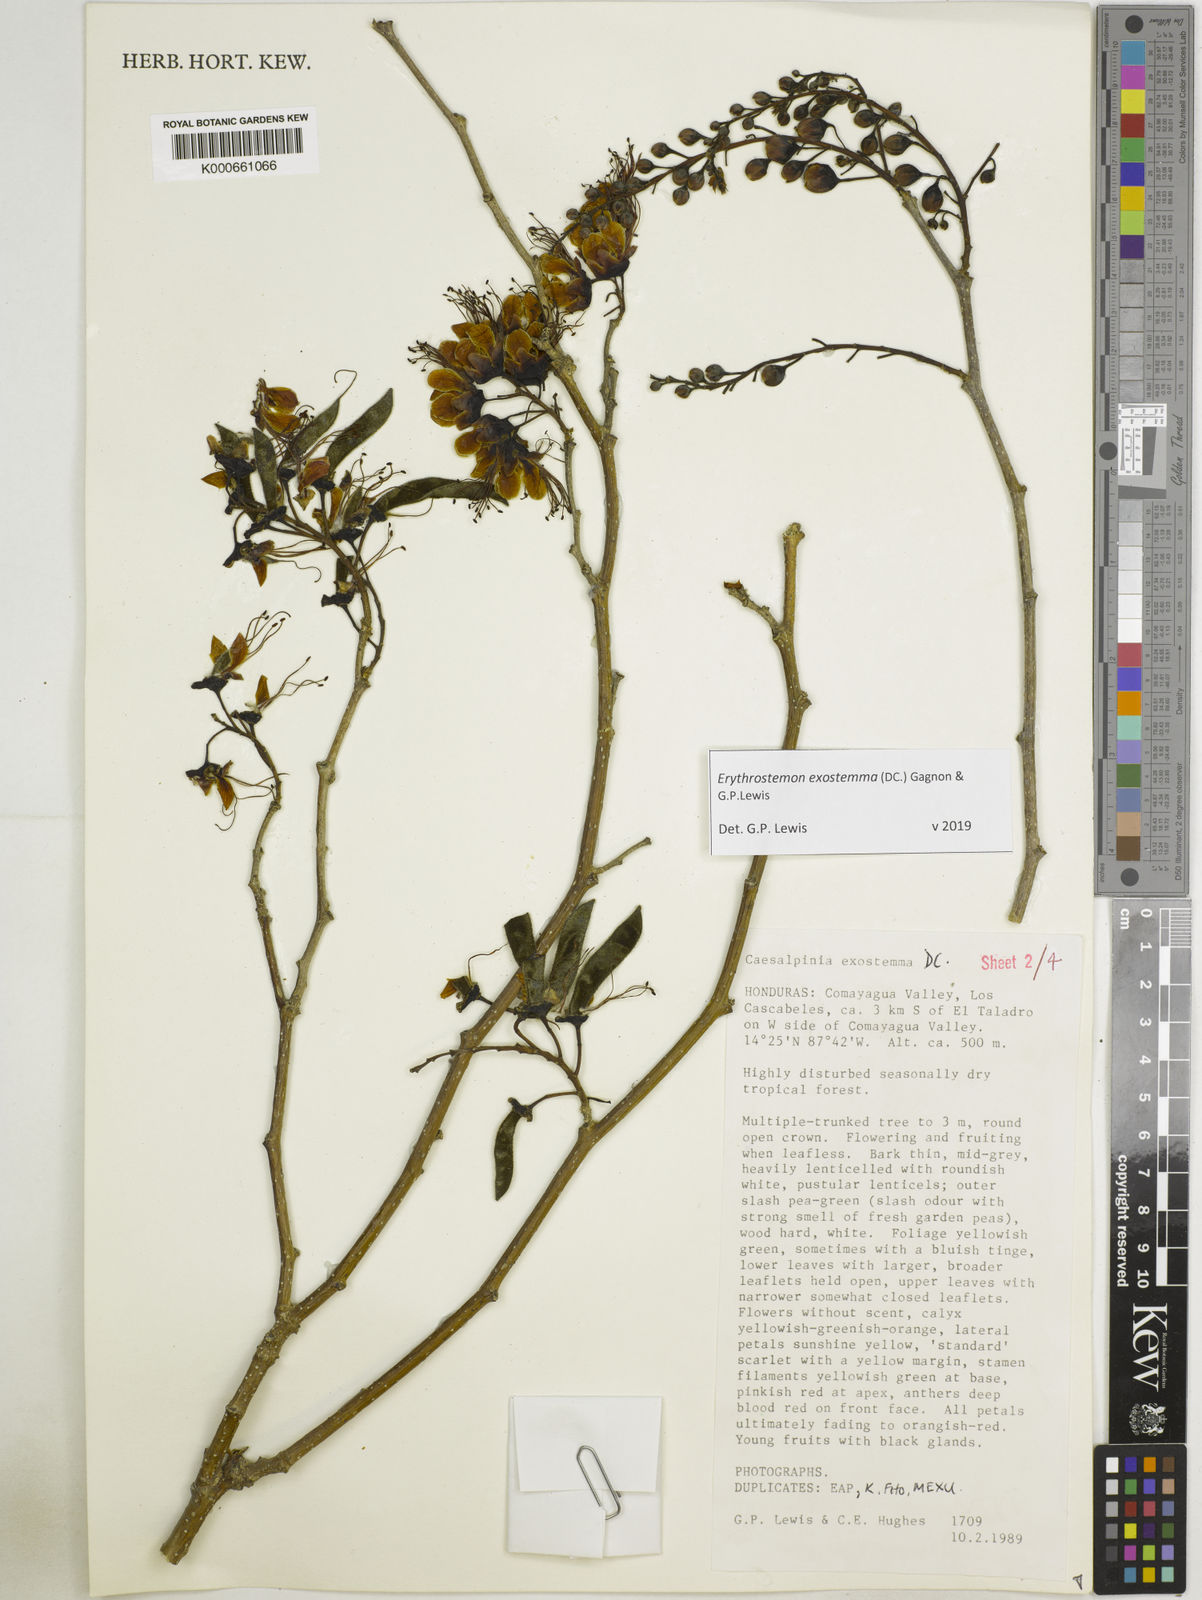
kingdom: Plantae
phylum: Tracheophyta
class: Magnoliopsida
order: Fabales
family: Fabaceae
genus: Erythrostemon
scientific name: Erythrostemon exostemma
